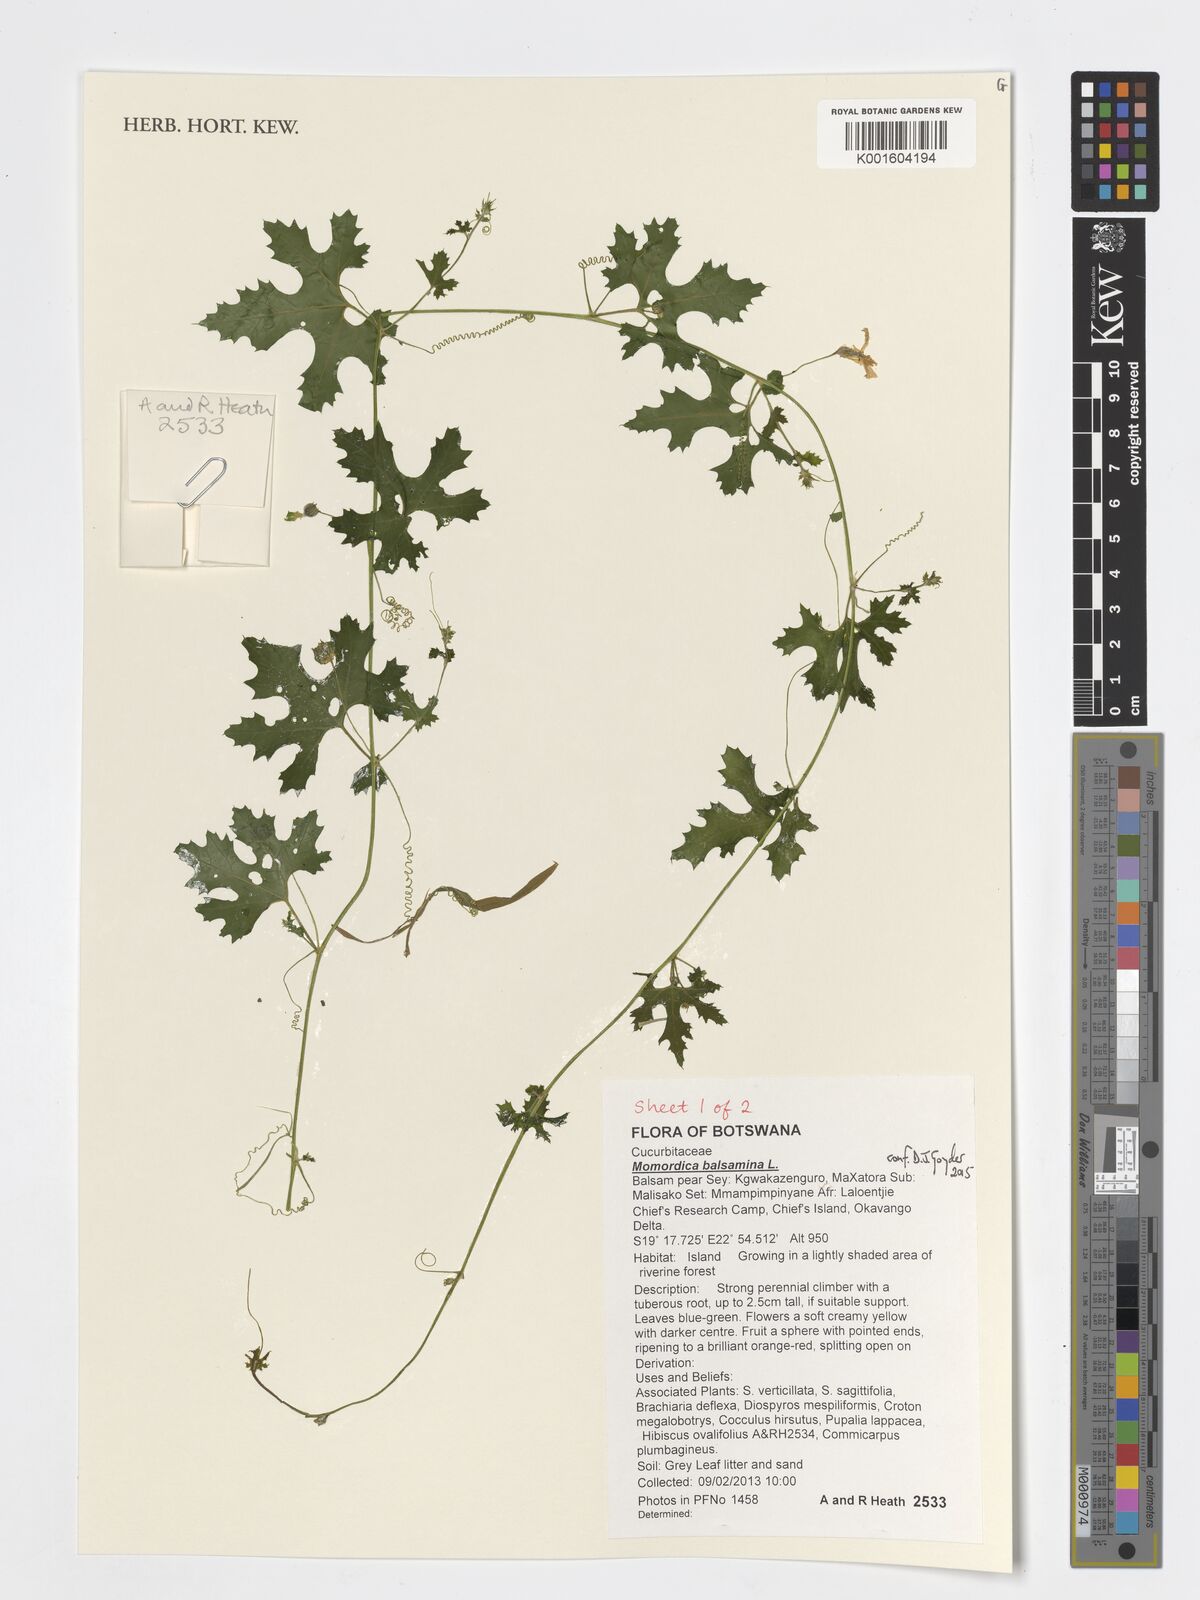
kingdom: Plantae
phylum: Tracheophyta
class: Magnoliopsida
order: Cucurbitales
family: Cucurbitaceae
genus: Momordica
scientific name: Momordica balsamina
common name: Southern balsampear
